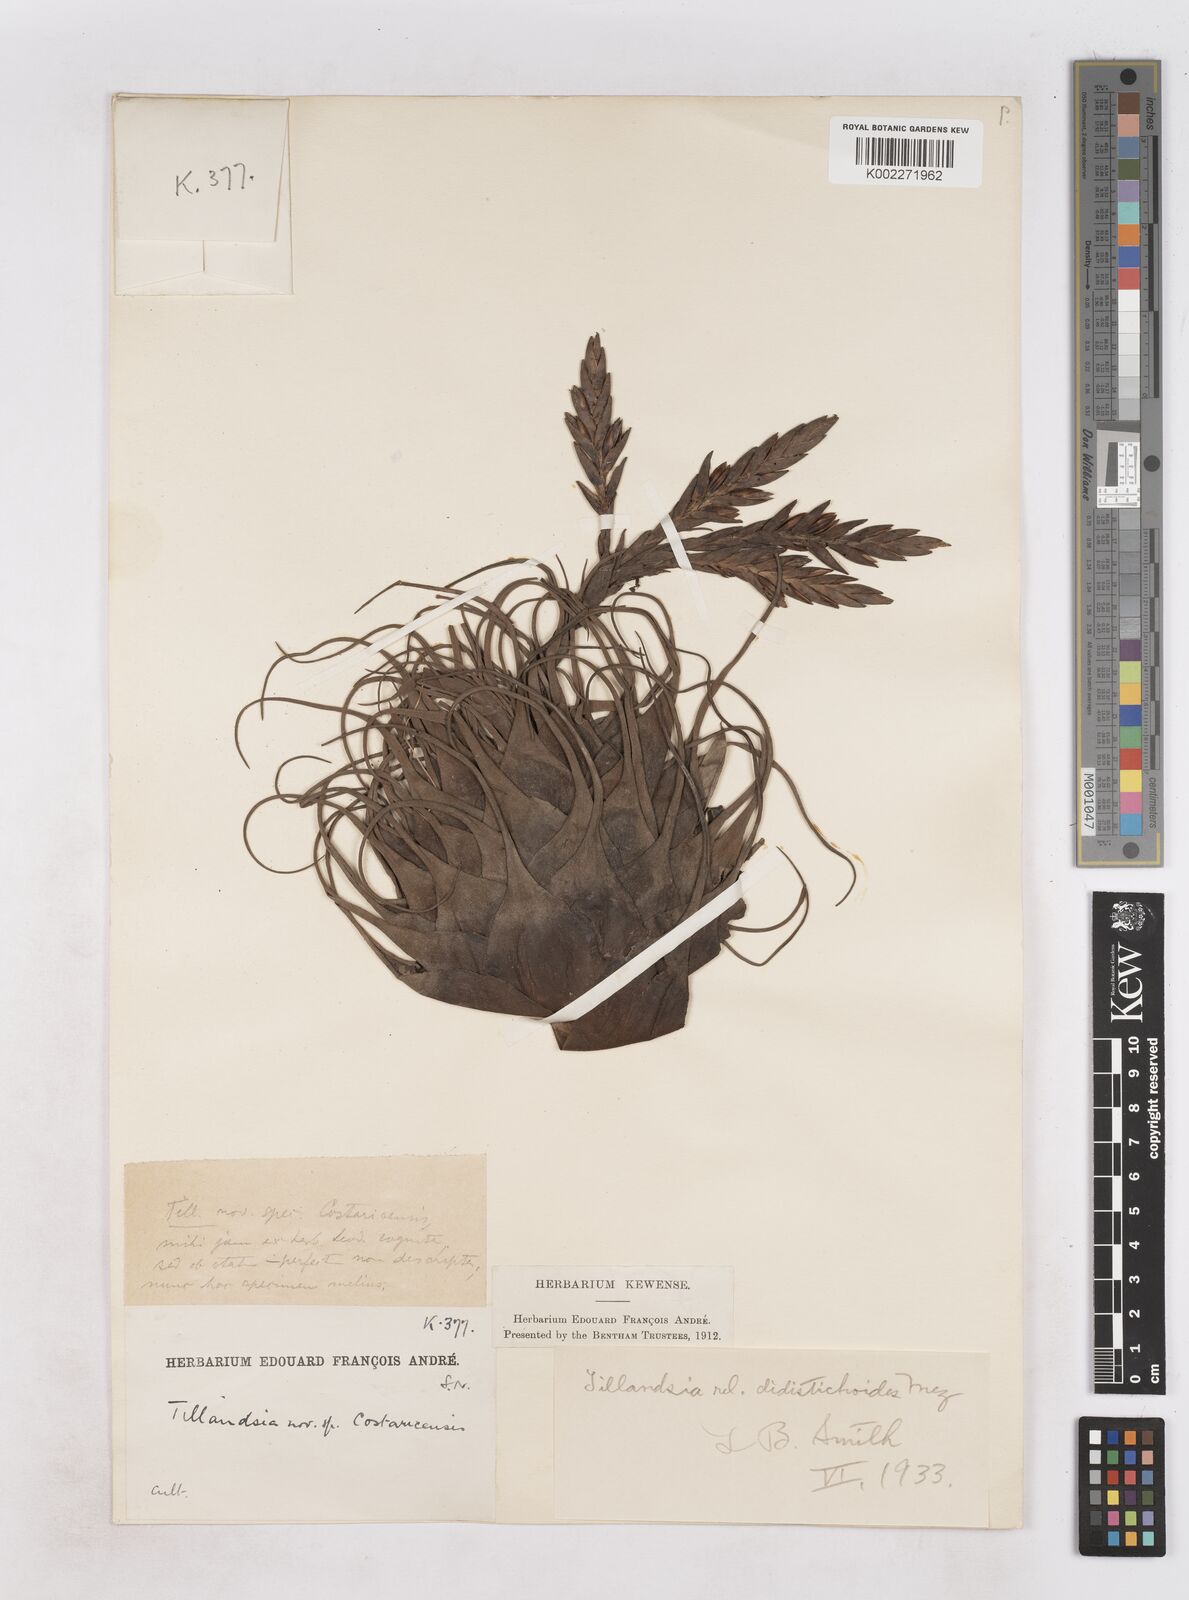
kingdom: Plantae
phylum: Tracheophyta
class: Liliopsida
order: Poales
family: Bromeliaceae
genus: Tillandsia
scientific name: Tillandsia didistichoides
